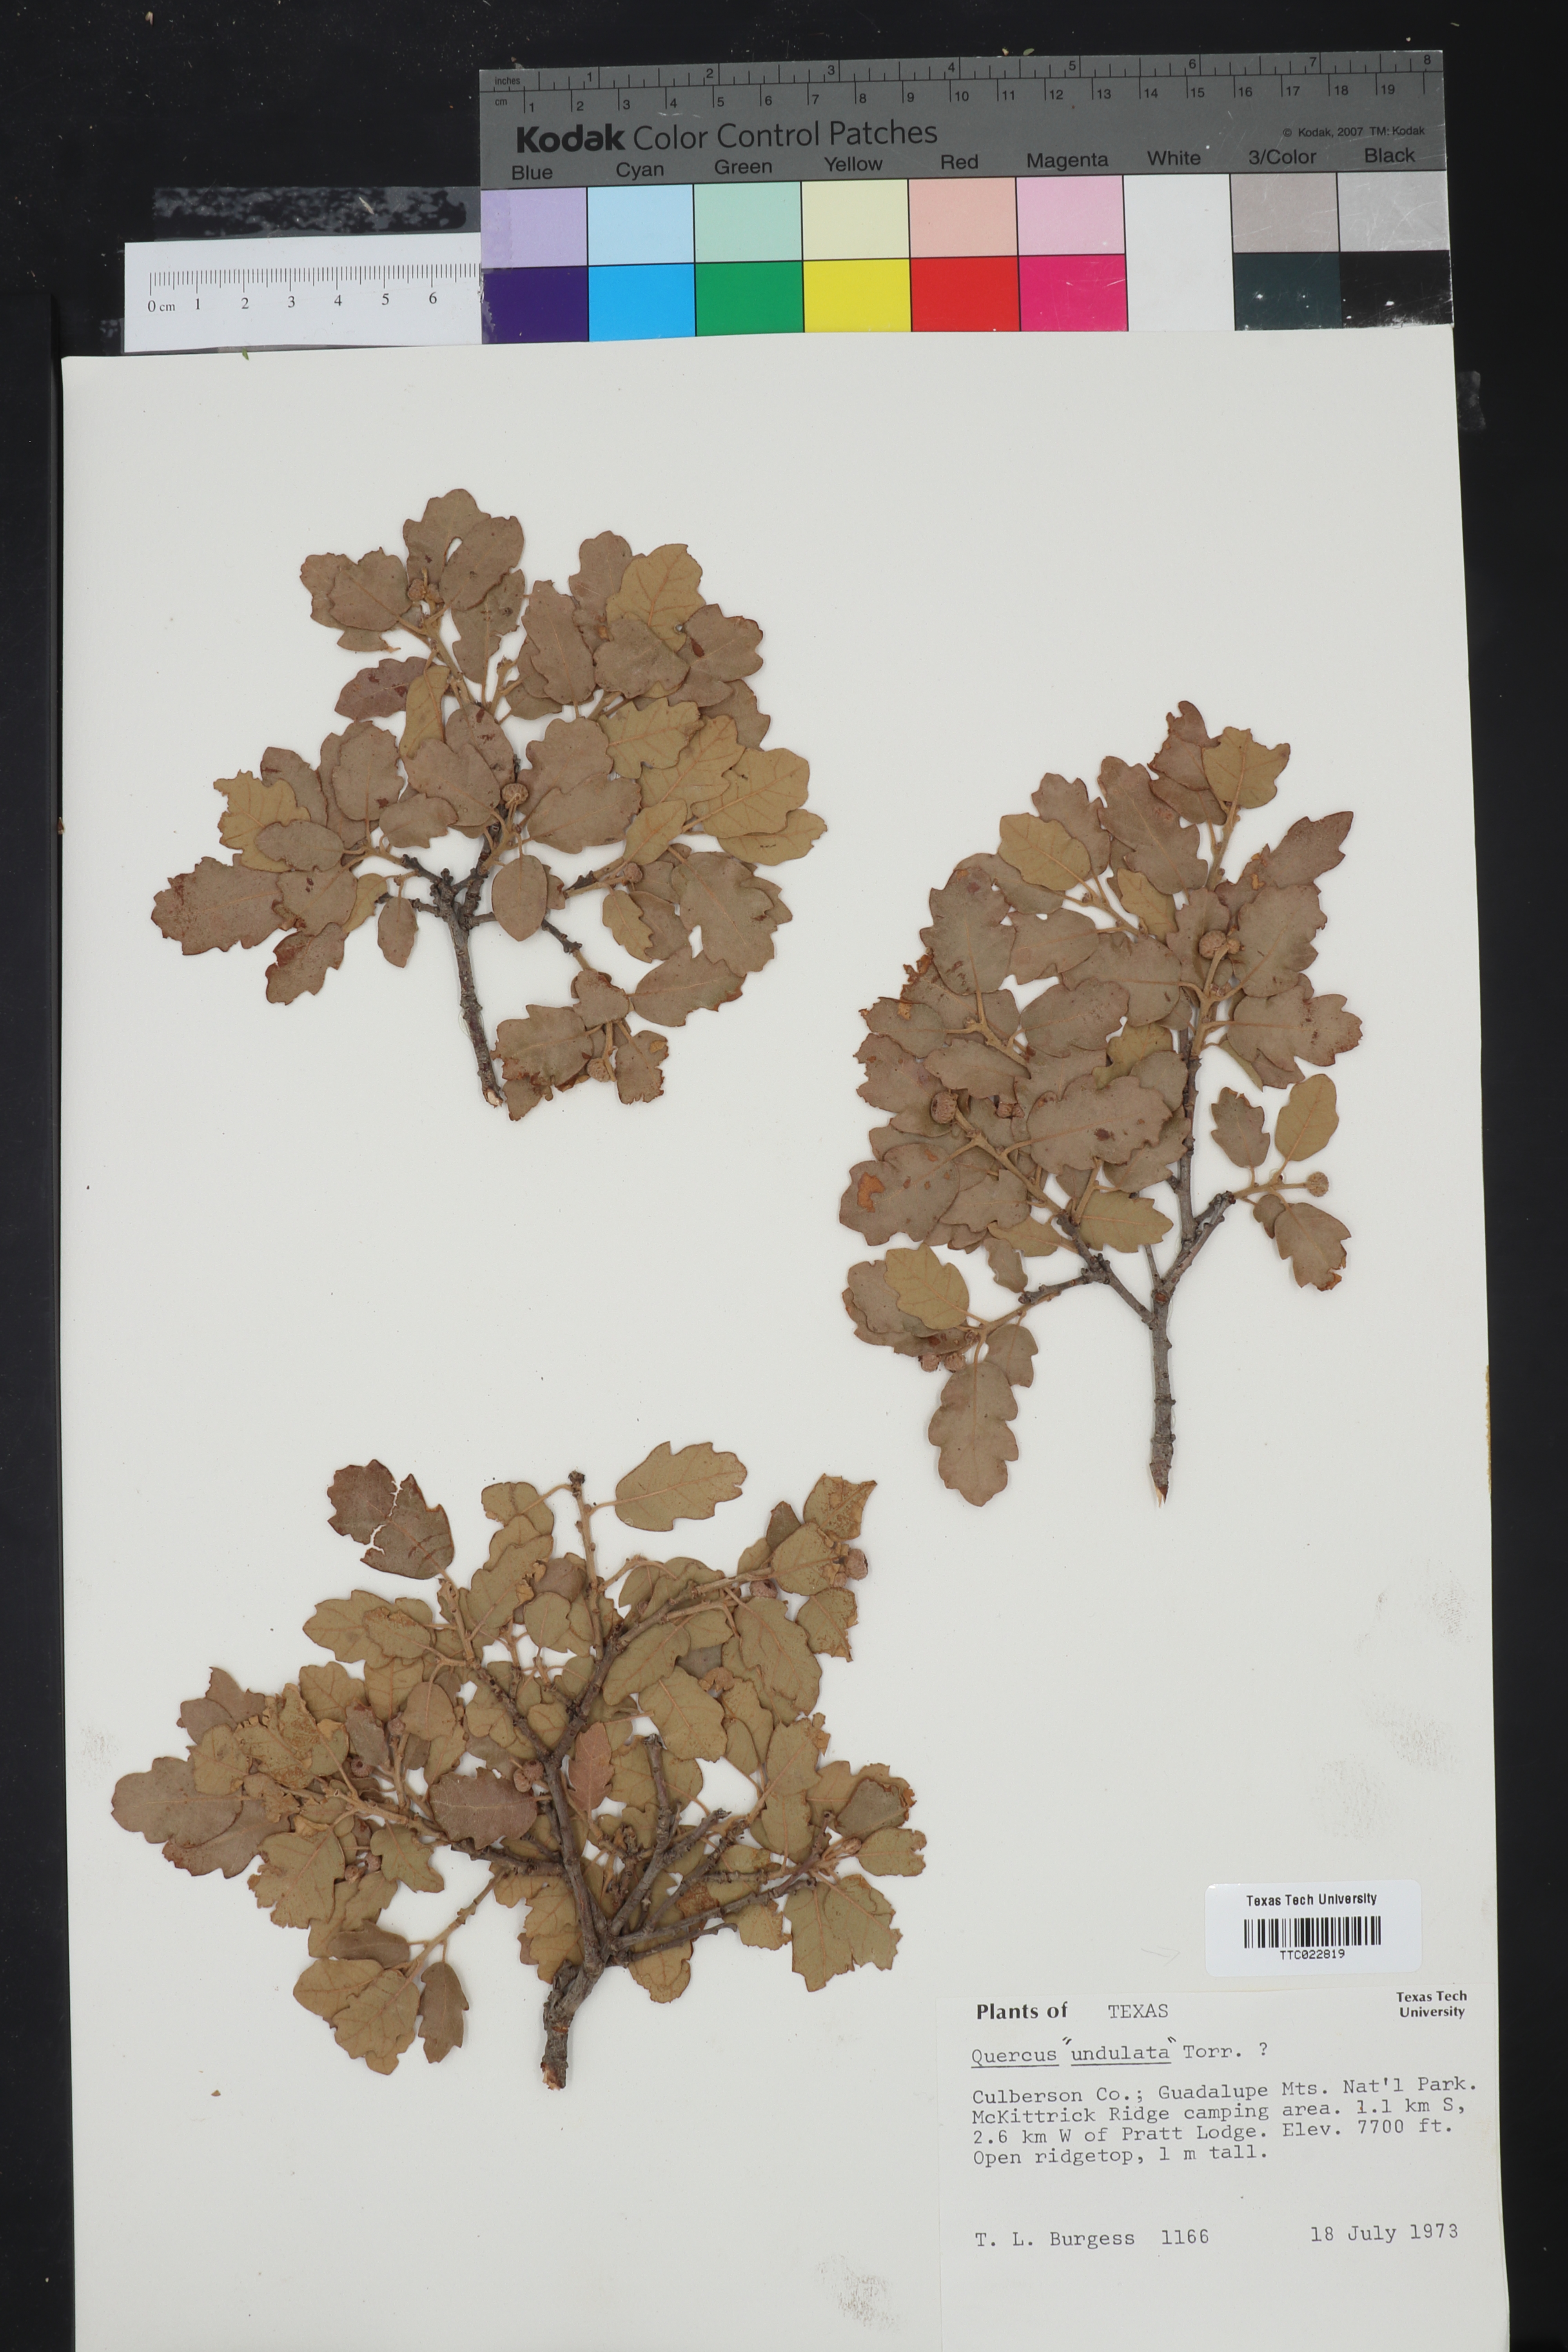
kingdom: Plantae
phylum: Tracheophyta
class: Magnoliopsida
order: Fagales
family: Fagaceae
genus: Quercus
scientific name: Quercus undulata
